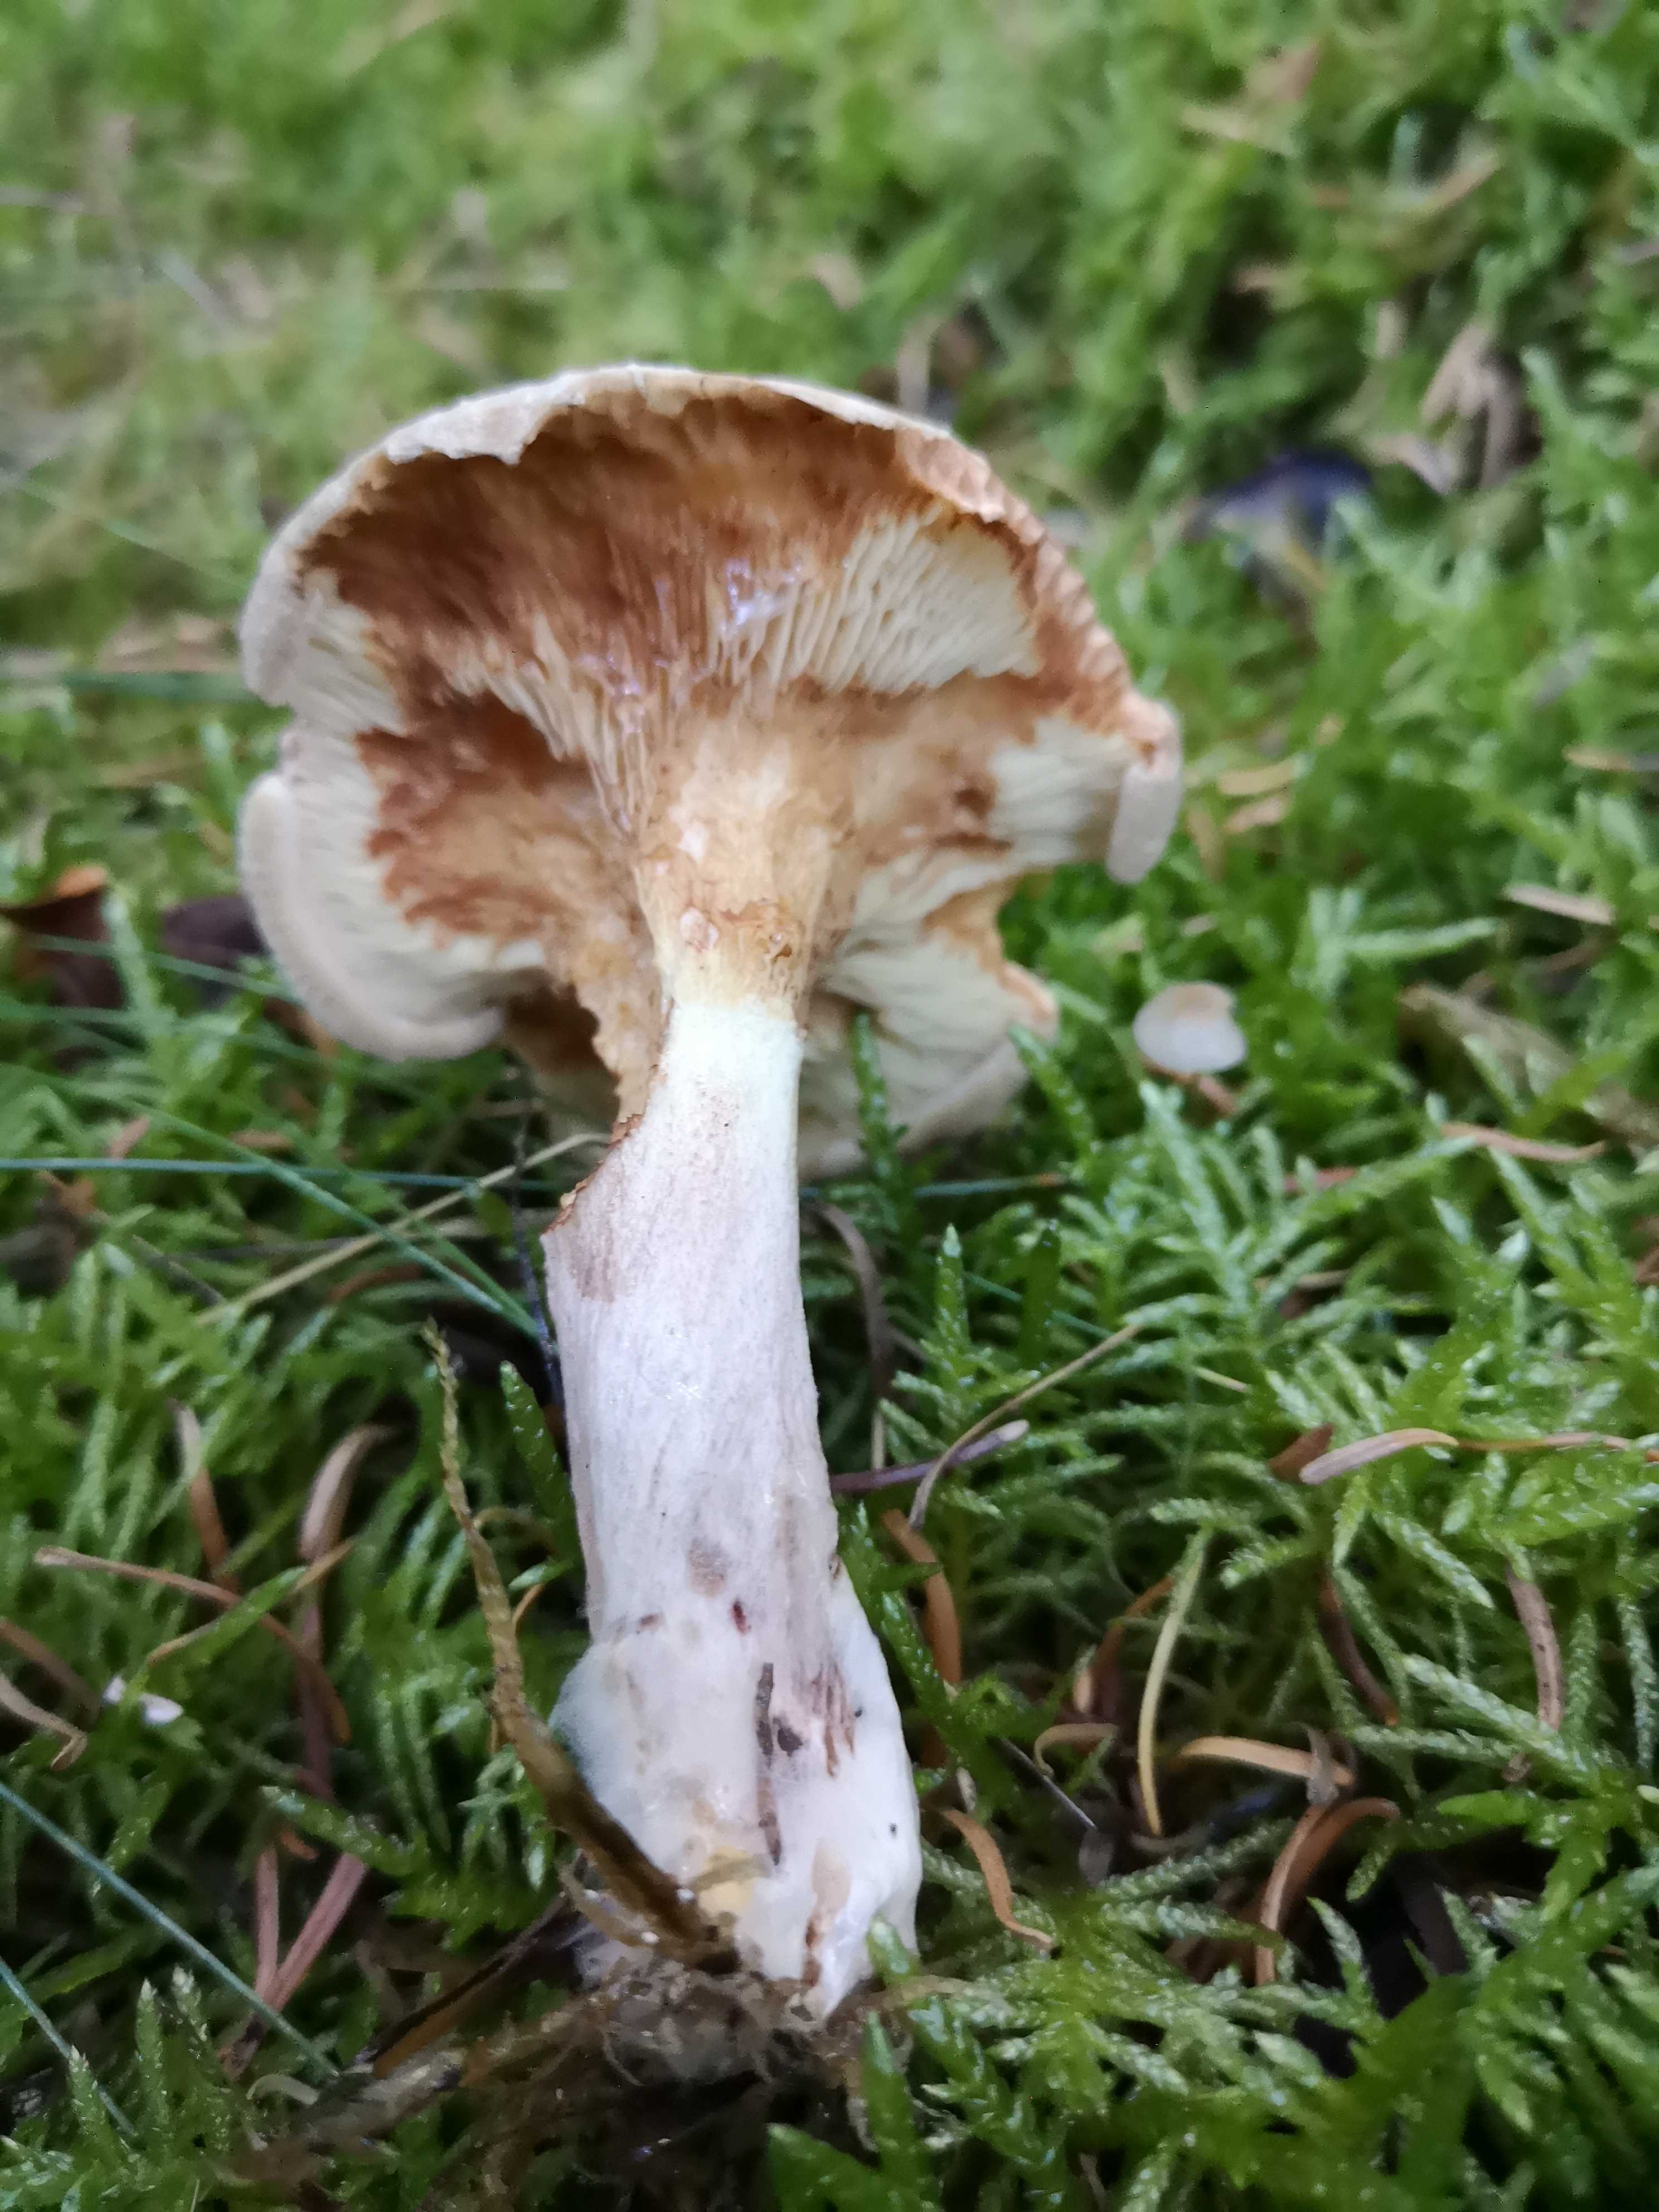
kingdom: Fungi
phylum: Basidiomycota
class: Agaricomycetes
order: Boletales
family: Paxillaceae
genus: Paxillus
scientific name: Paxillus involutus
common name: almindelig netbladhat
